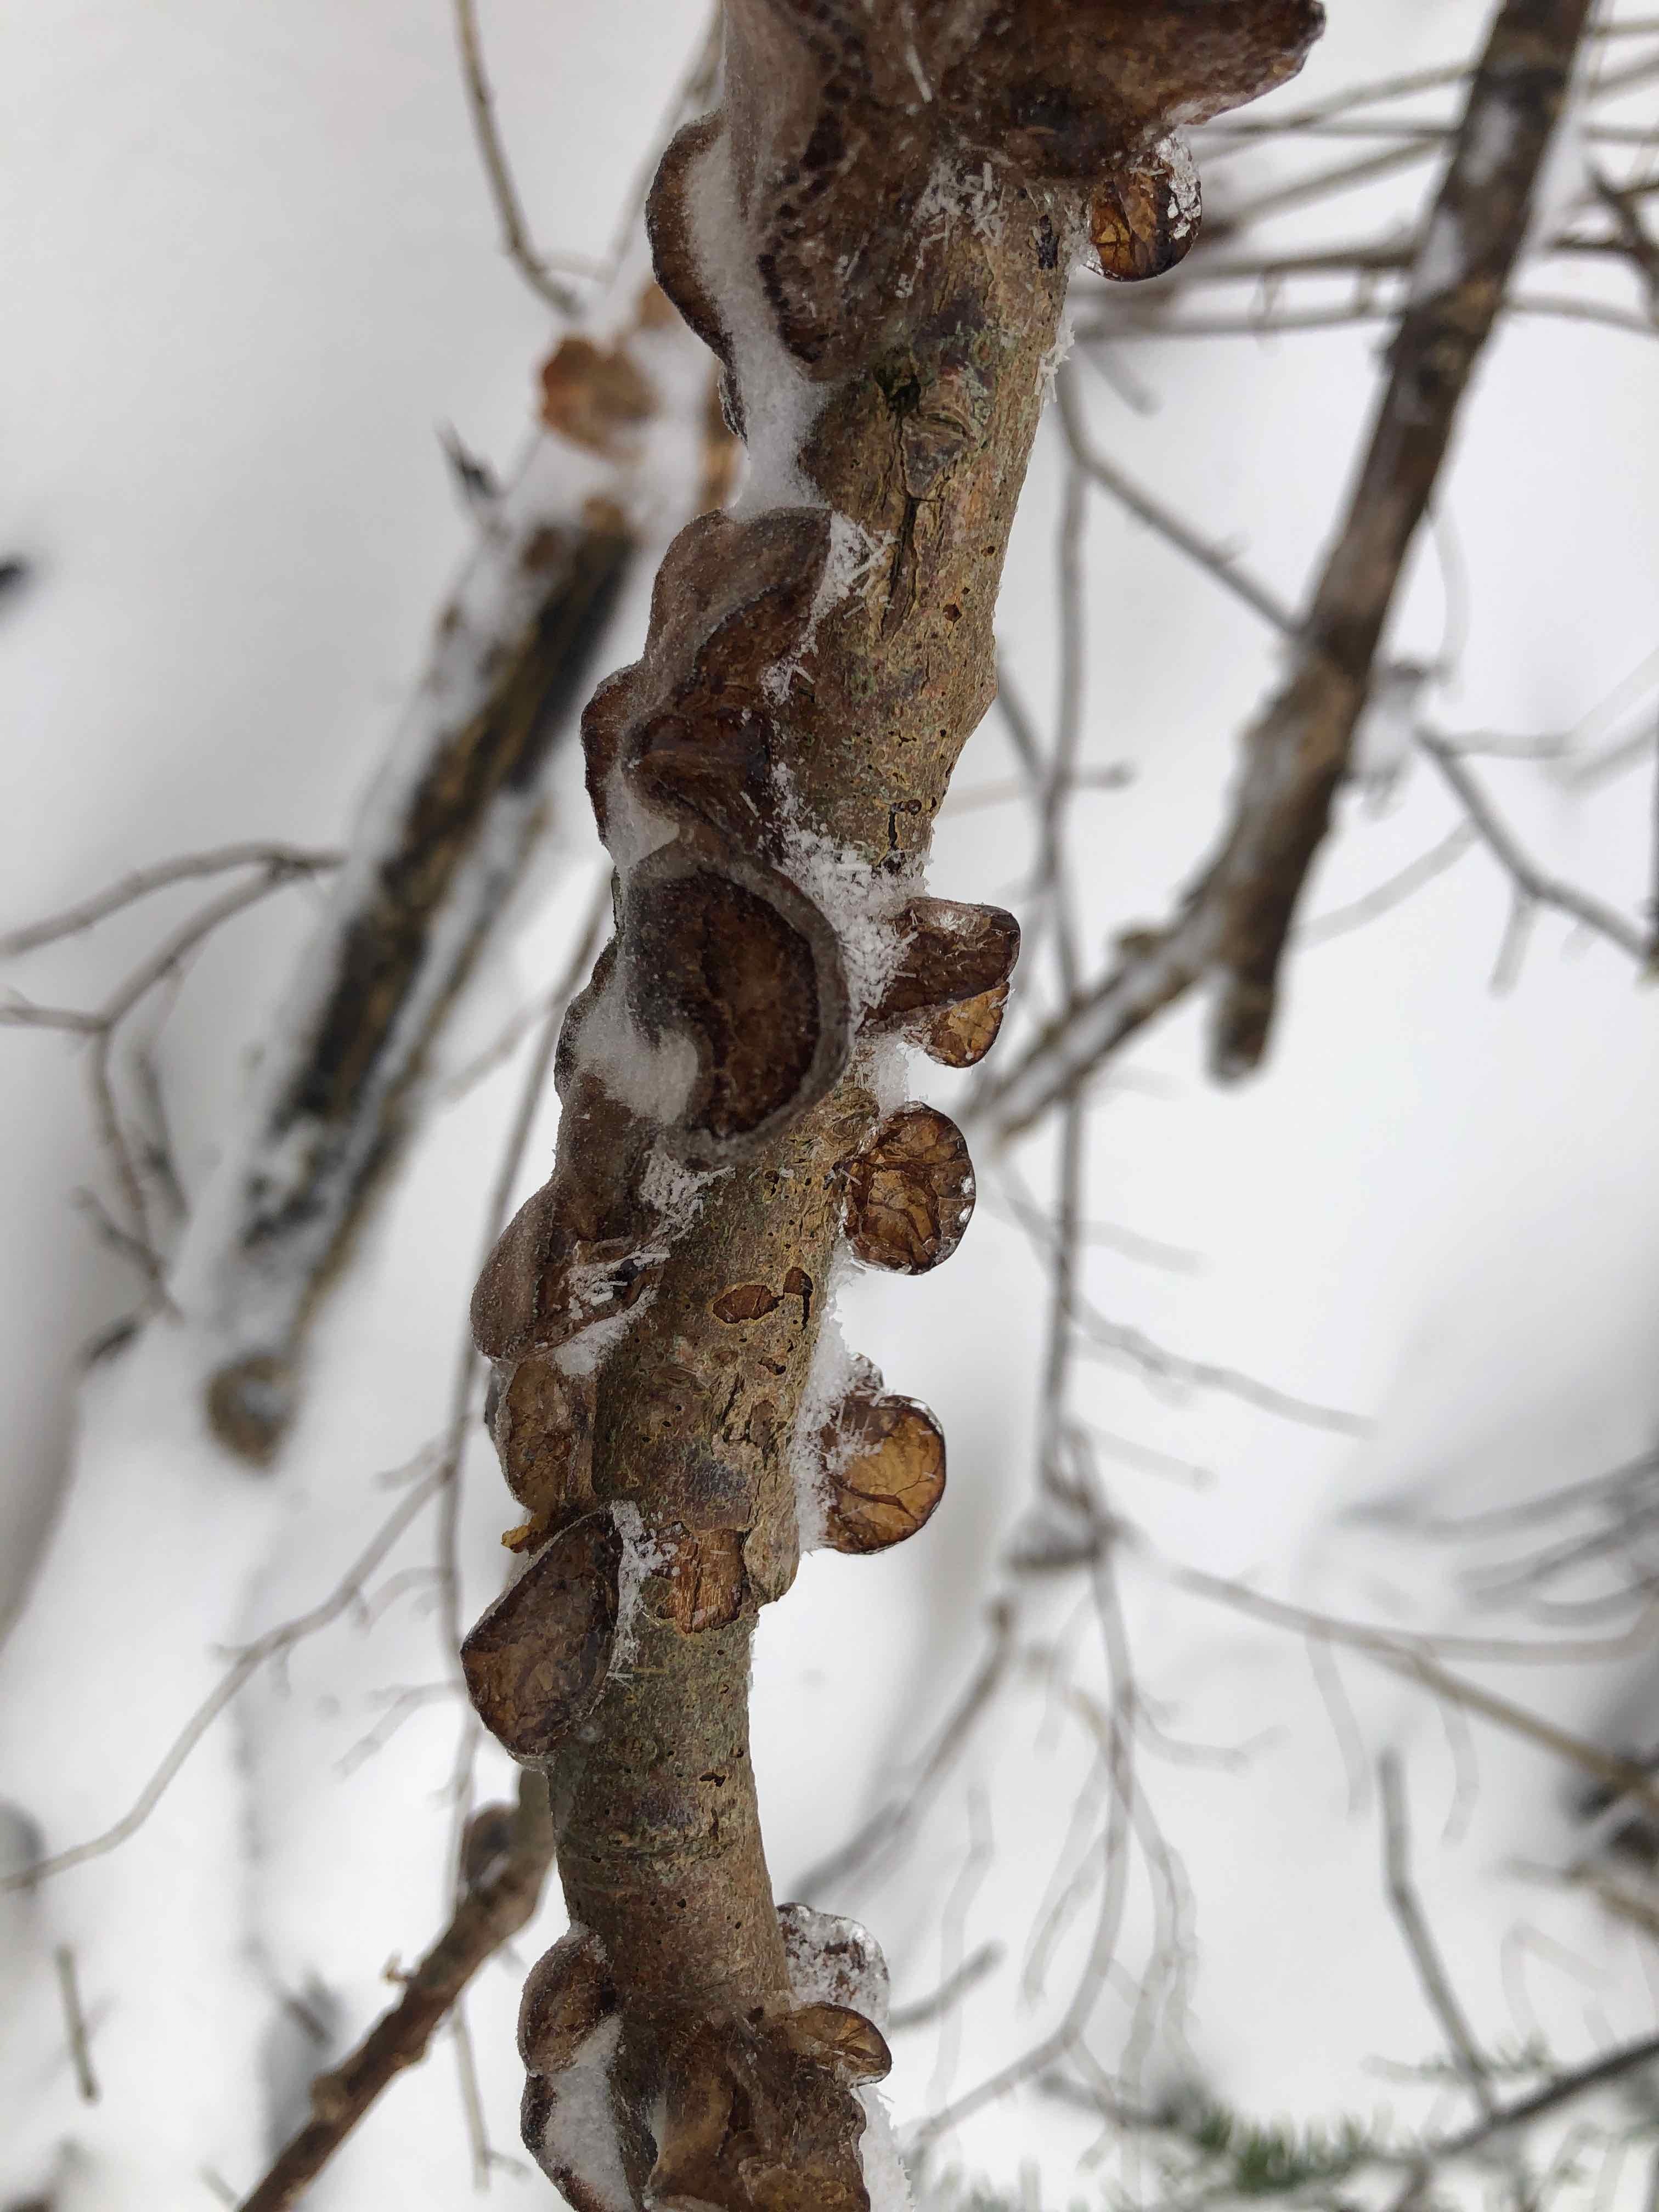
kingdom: Fungi
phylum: Basidiomycota
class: Agaricomycetes
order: Auriculariales
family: Auriculariaceae
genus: Exidia
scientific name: Exidia recisa
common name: pile-bævretop
